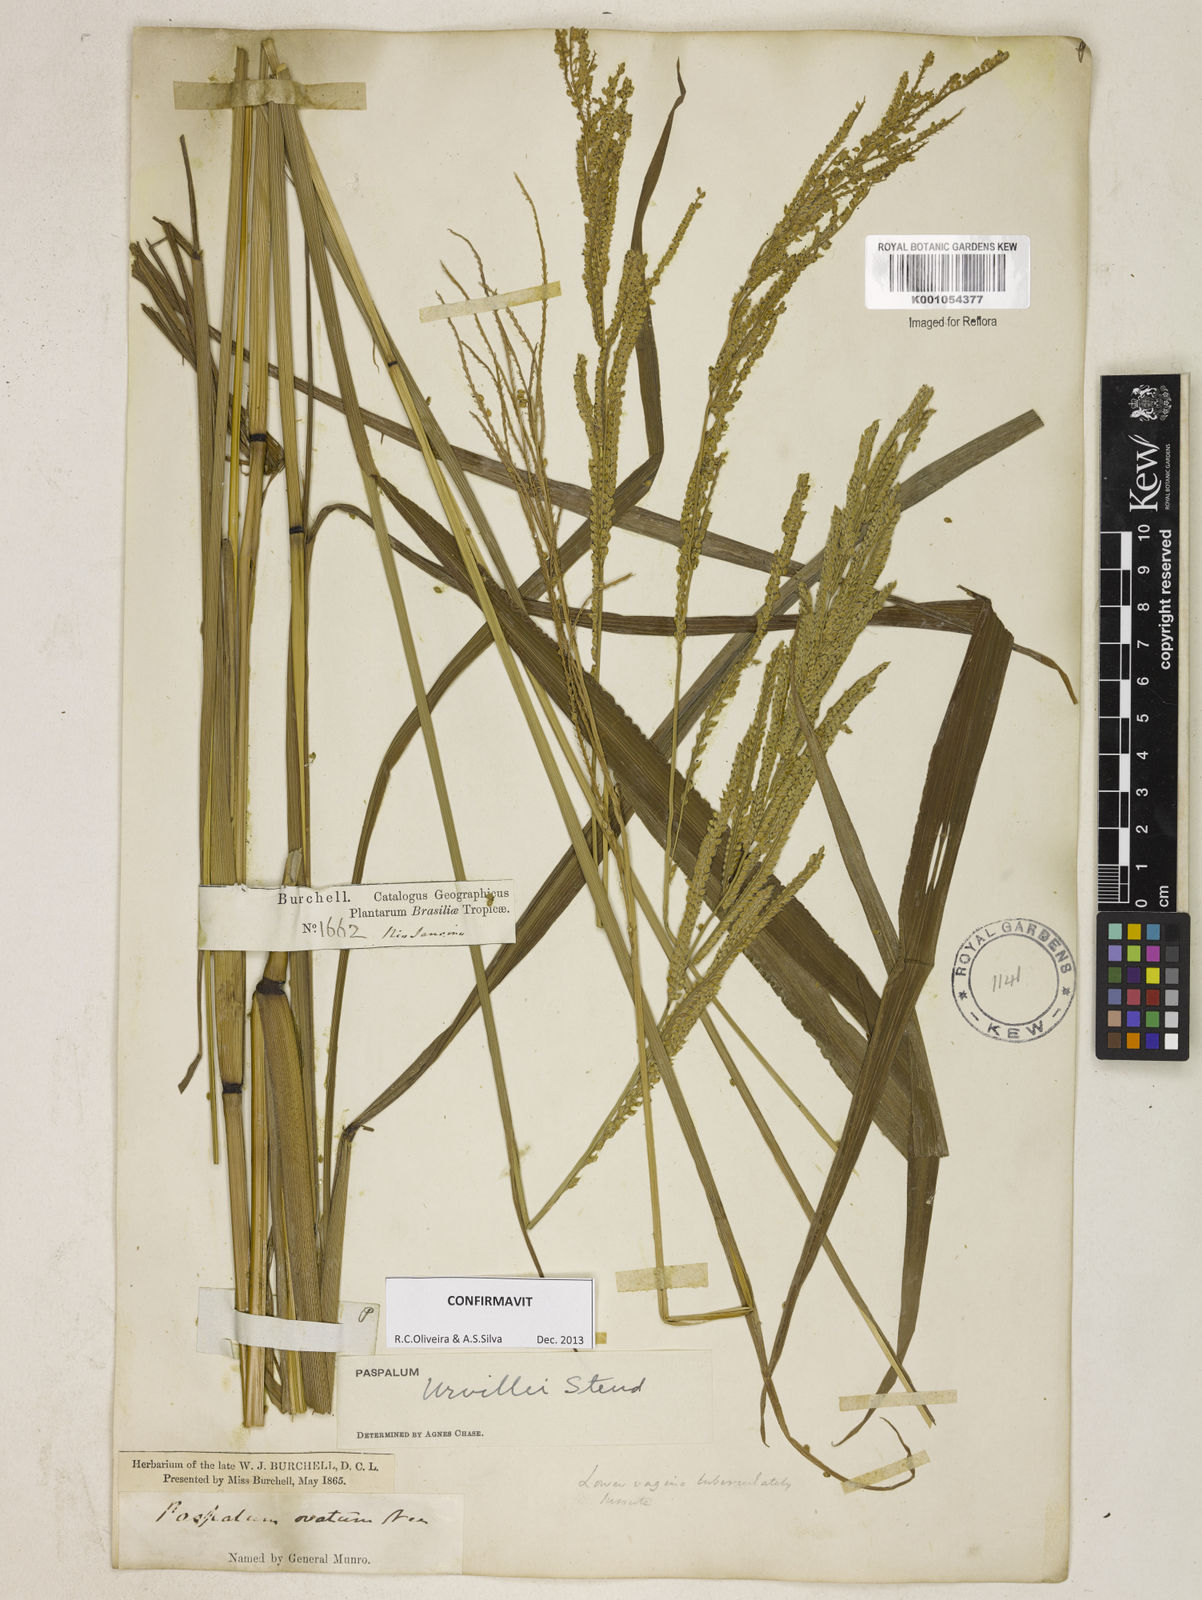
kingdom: Plantae
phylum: Tracheophyta
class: Liliopsida
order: Poales
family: Poaceae
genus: Paspalum
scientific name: Paspalum urvillei
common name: Vasey's grass
